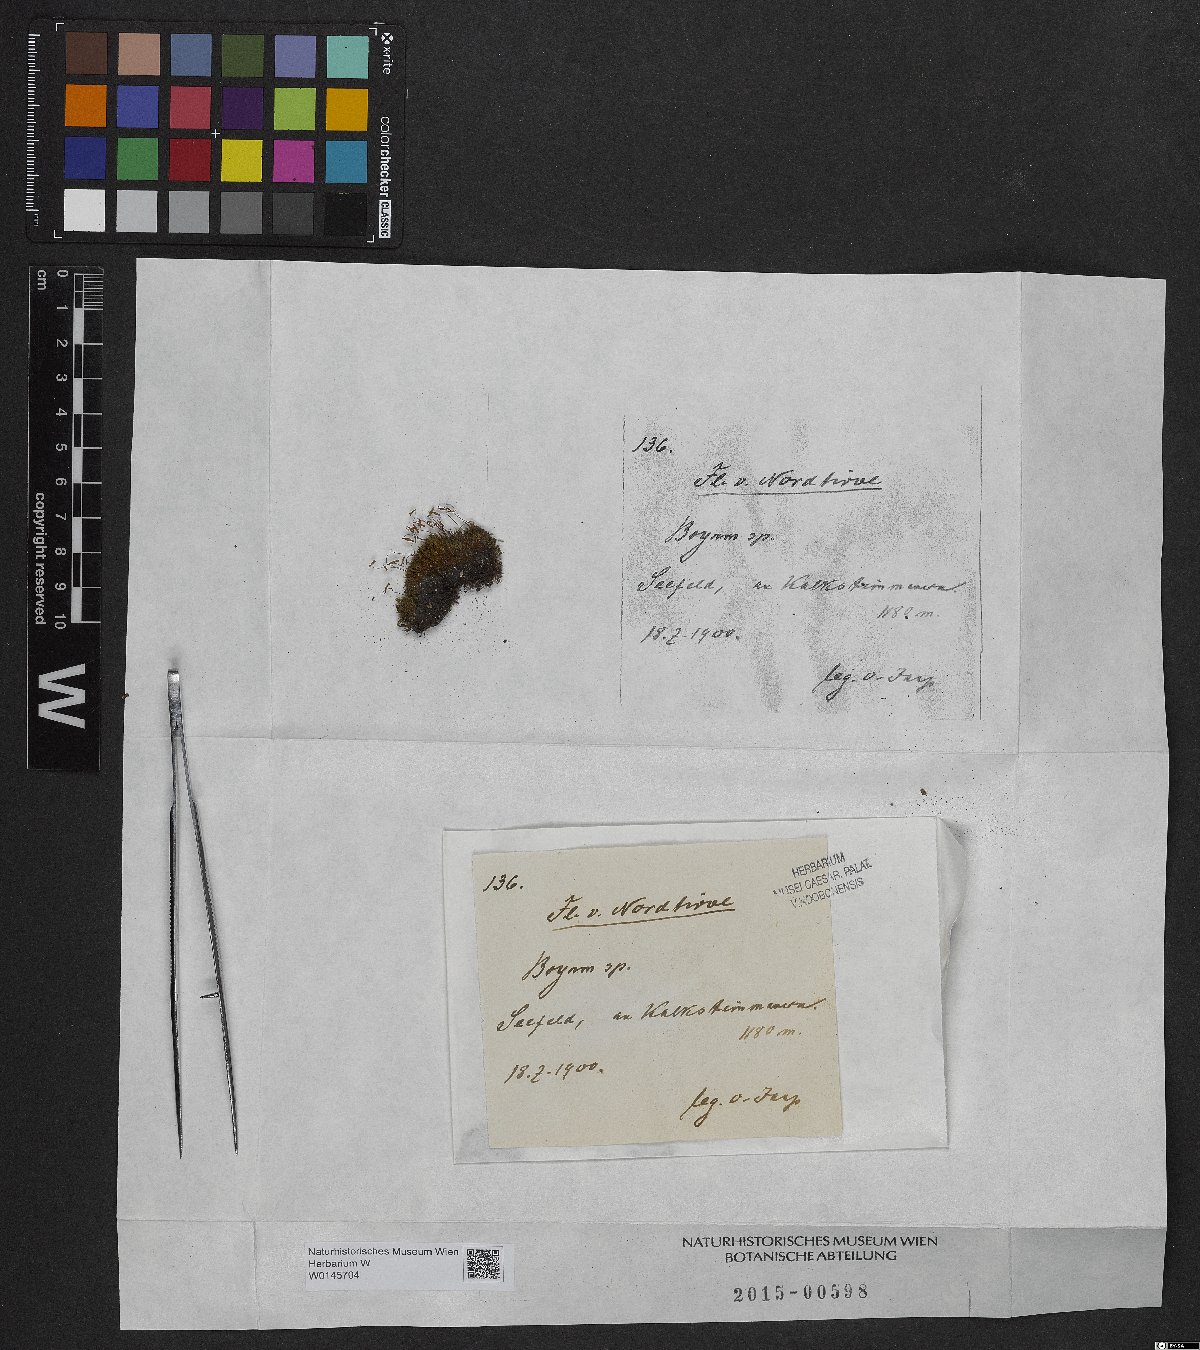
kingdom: Plantae
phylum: Bryophyta
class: Bryopsida
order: Bryales
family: Bryaceae
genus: Bryum
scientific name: Bryum
